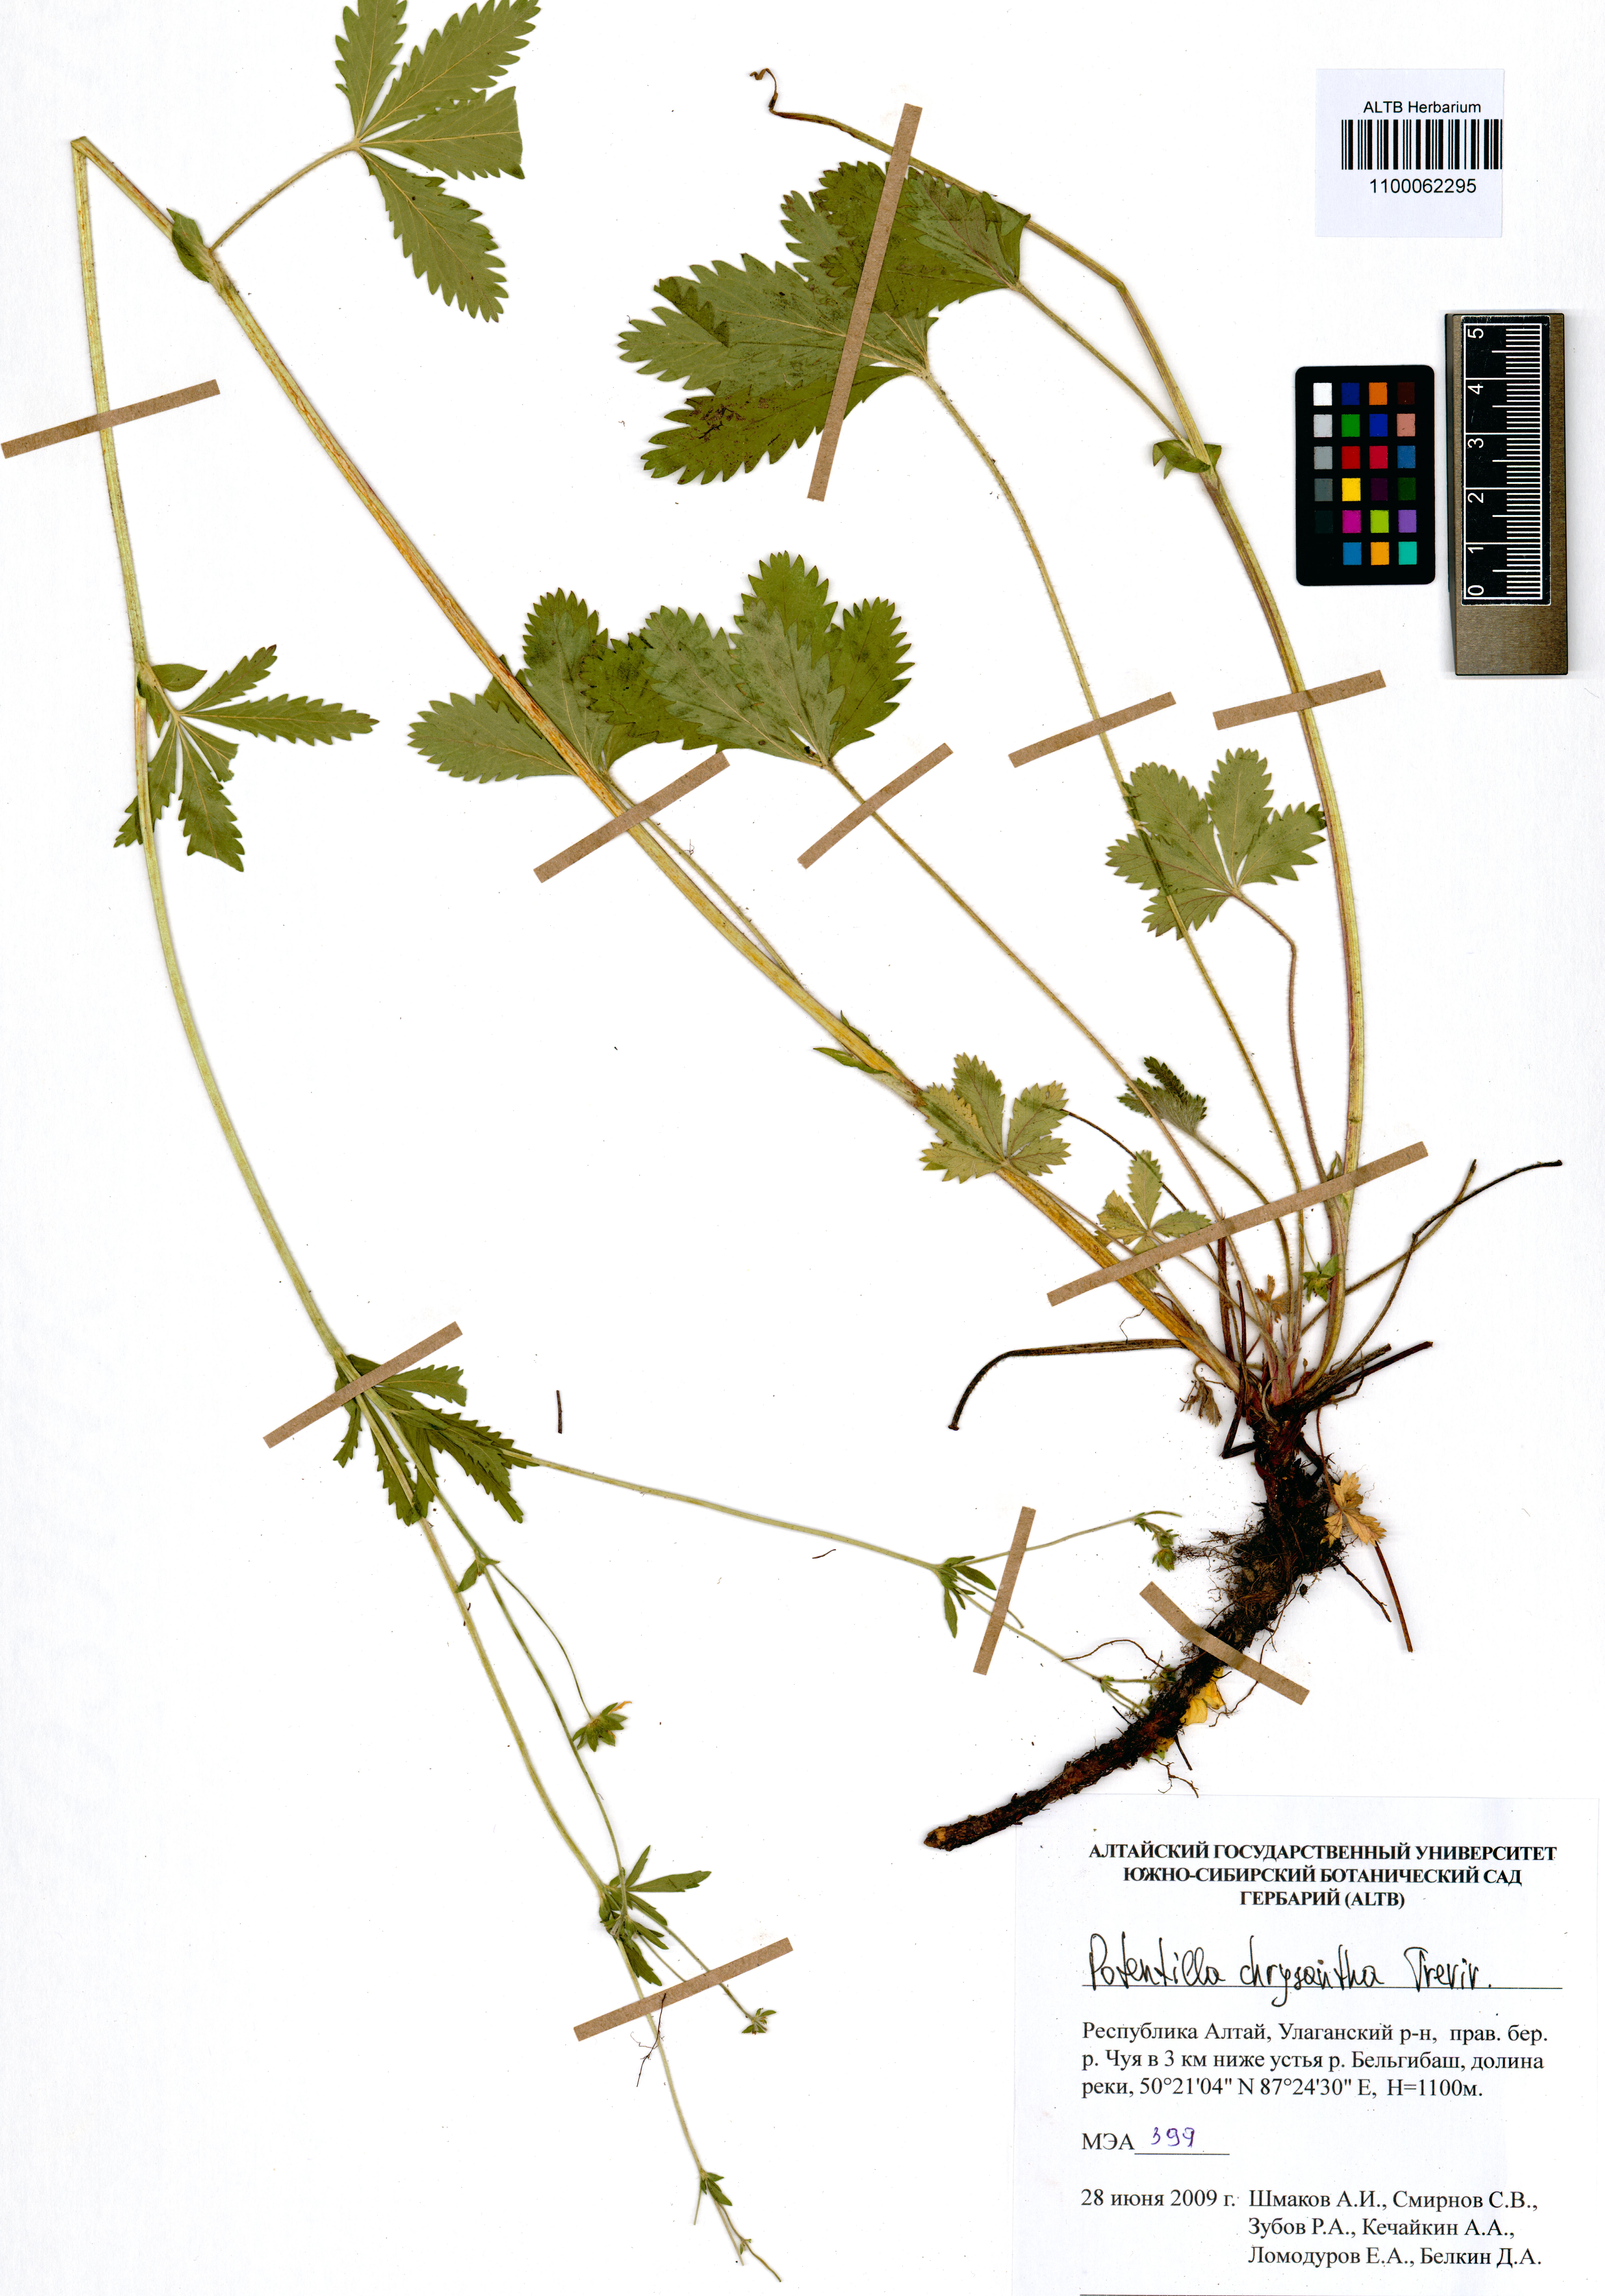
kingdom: Plantae
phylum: Tracheophyta
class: Magnoliopsida
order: Rosales
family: Rosaceae
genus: Potentilla
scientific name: Potentilla chrysantha
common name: Thuringian cinquefoil
